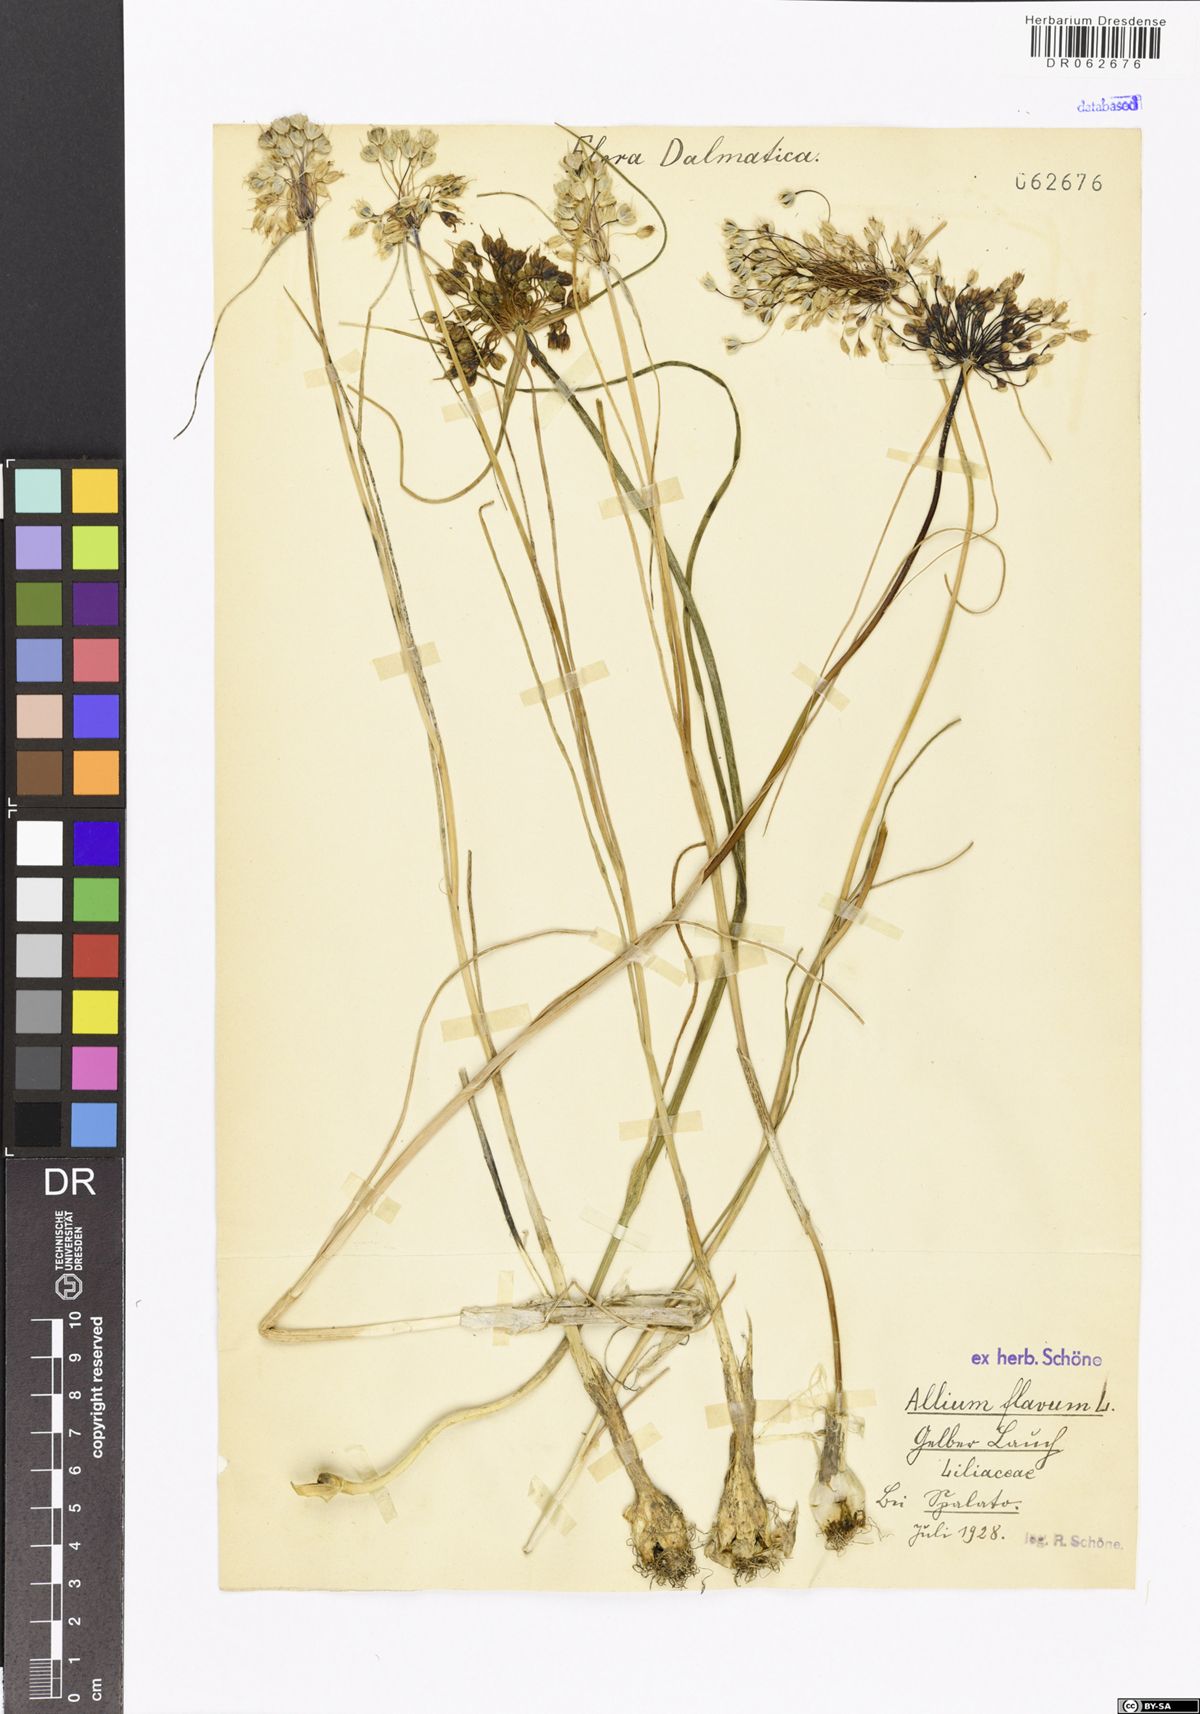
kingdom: Plantae
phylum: Tracheophyta
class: Liliopsida
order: Asparagales
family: Amaryllidaceae
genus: Allium
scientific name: Allium flavum
